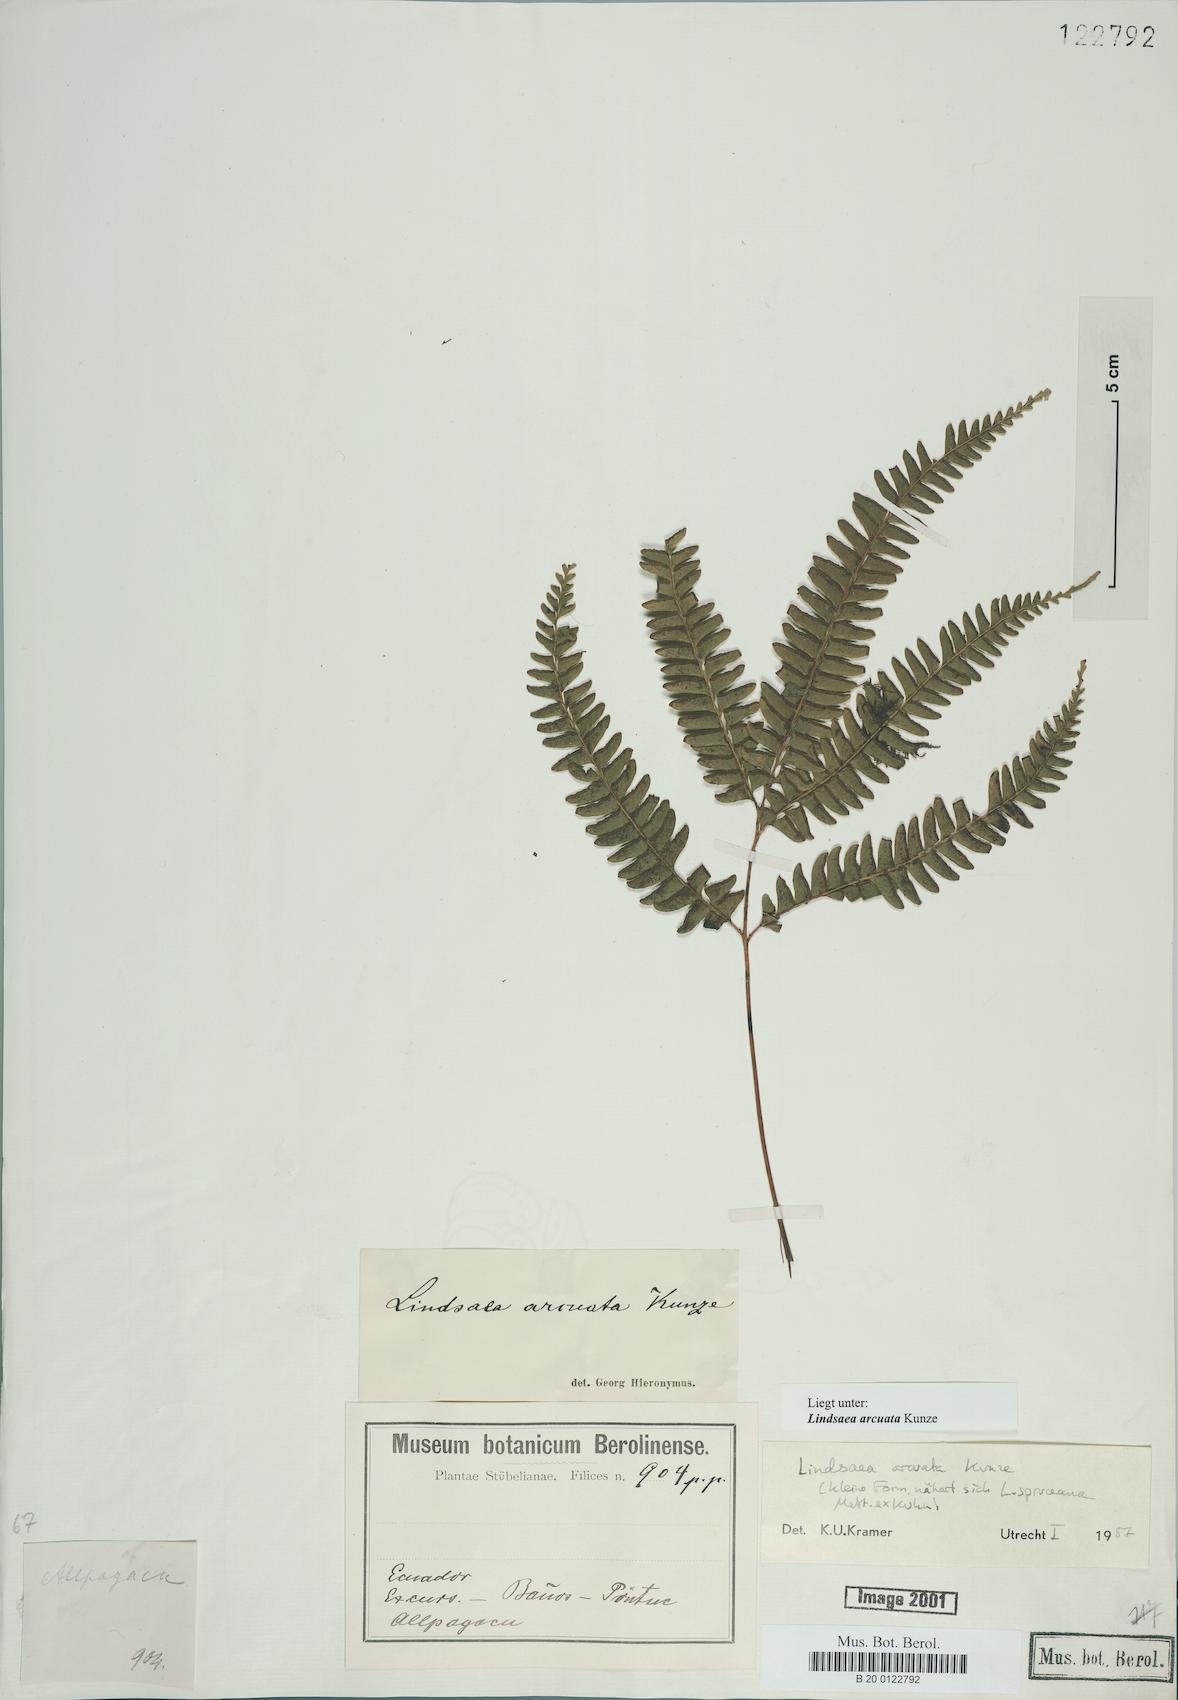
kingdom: Plantae
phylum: Tracheophyta
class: Polypodiopsida
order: Polypodiales
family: Lindsaeaceae
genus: Lindsaea
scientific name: Lindsaea arcuata
